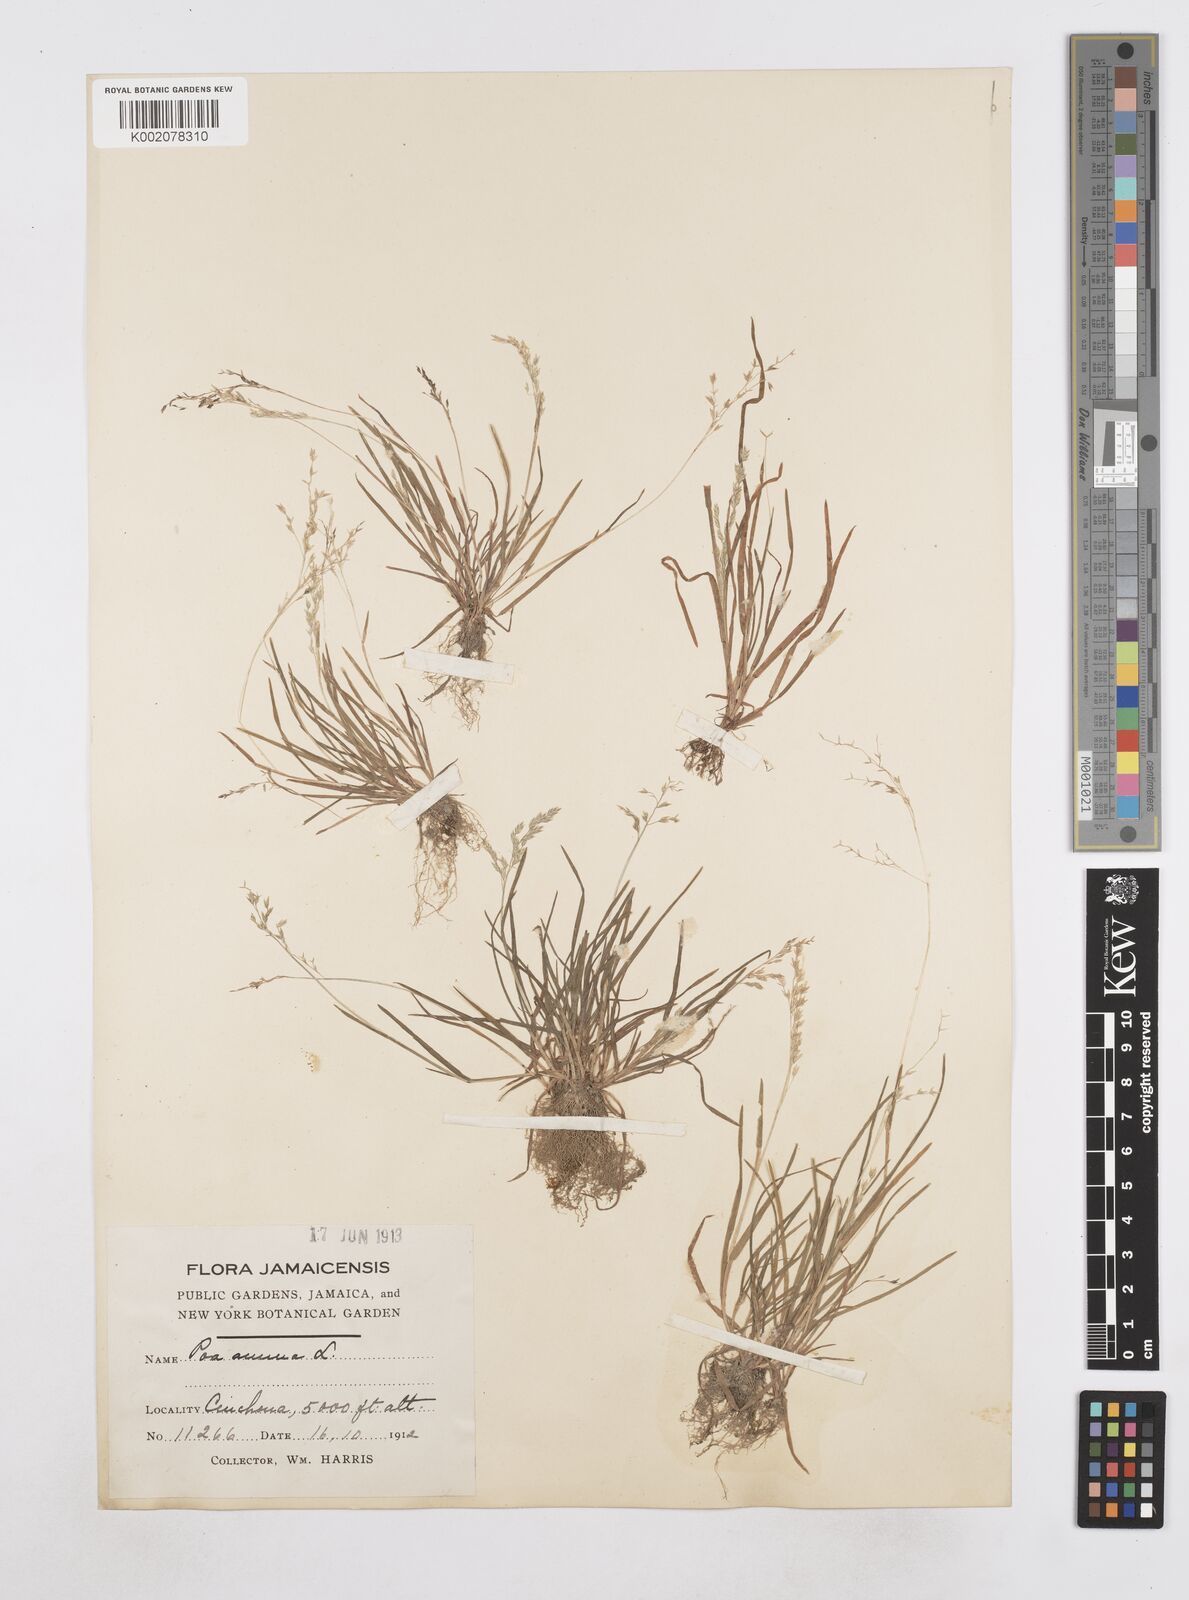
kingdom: Plantae
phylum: Tracheophyta
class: Liliopsida
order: Poales
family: Poaceae
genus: Poa
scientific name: Poa annua
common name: Annual bluegrass
